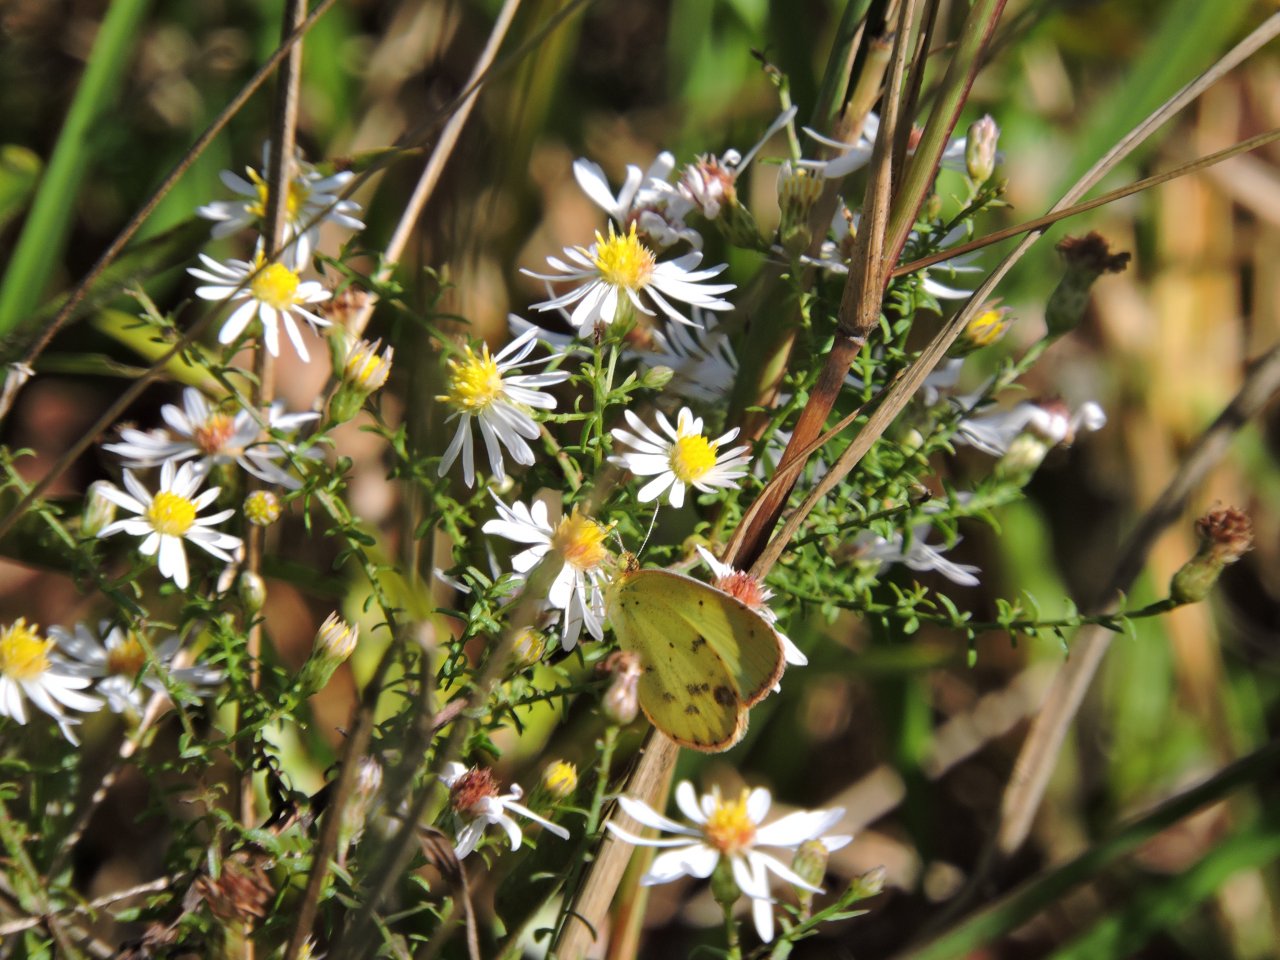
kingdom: Animalia
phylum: Arthropoda
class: Insecta
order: Lepidoptera
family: Pieridae
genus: Pyrisitia
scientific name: Pyrisitia lisa
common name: Little Yellow
